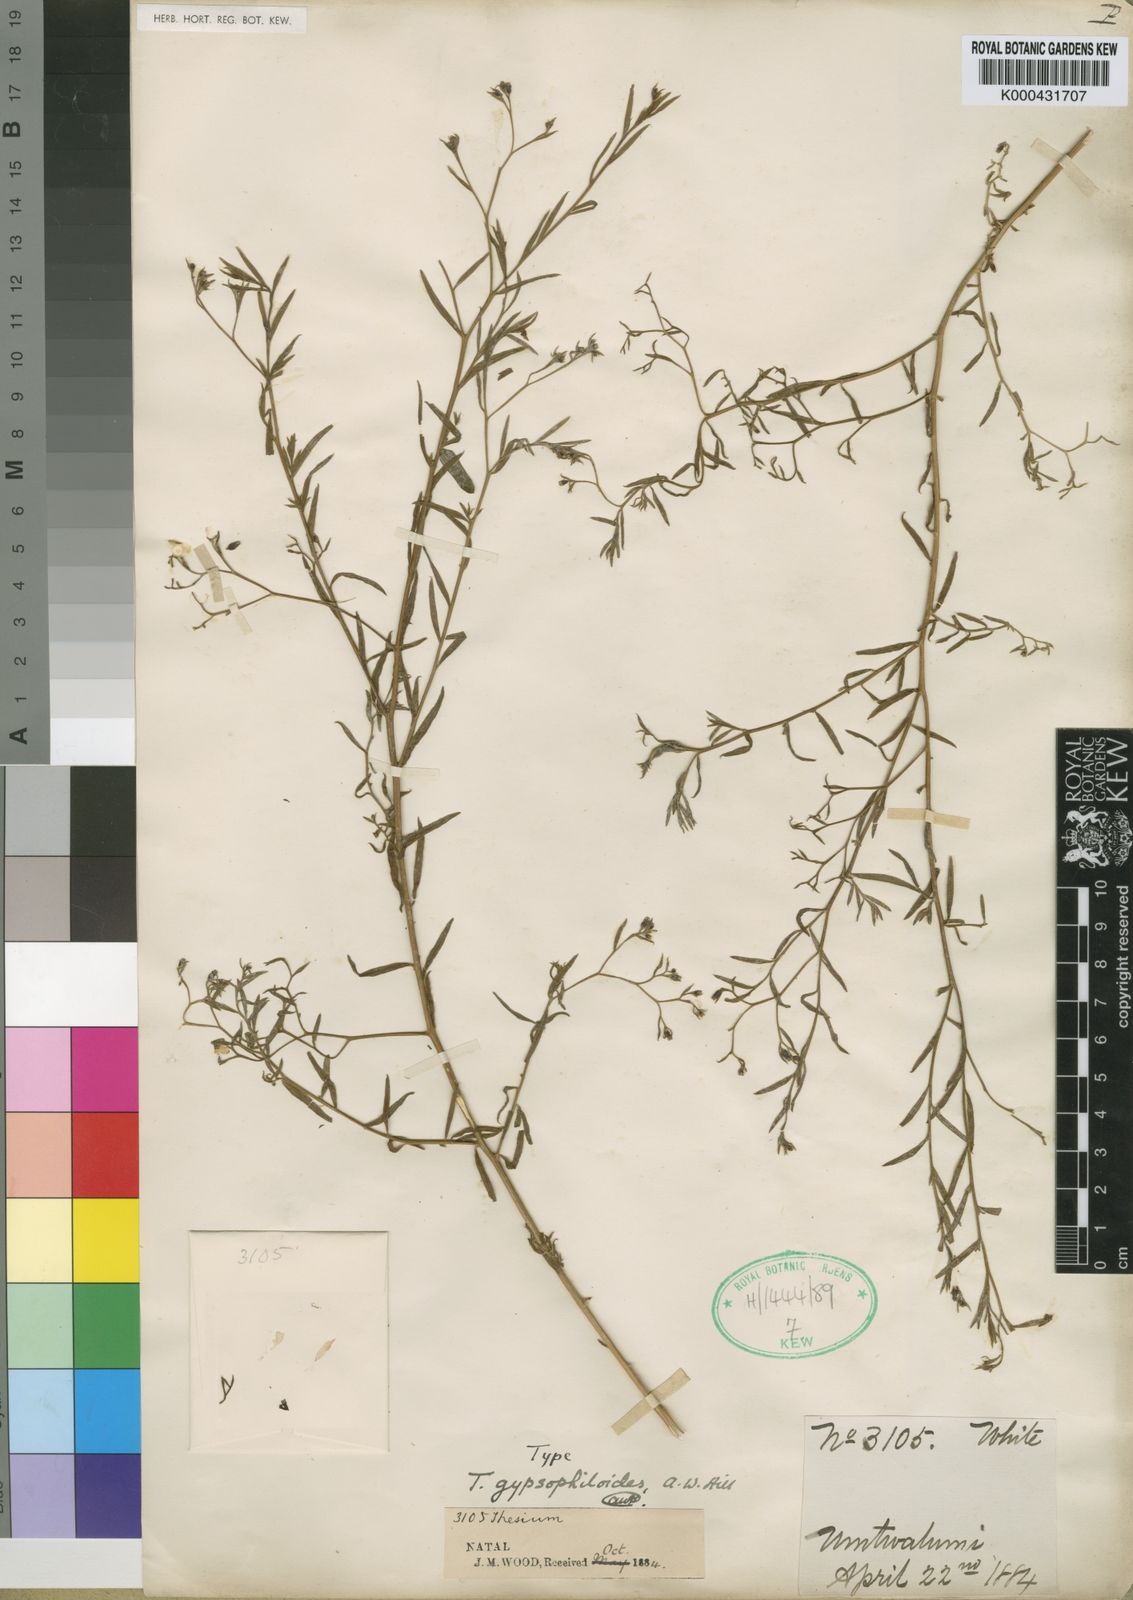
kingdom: Plantae
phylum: Tracheophyta
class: Magnoliopsida
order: Santalales
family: Thesiaceae
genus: Thesium
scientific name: Thesium gypsophiloides
